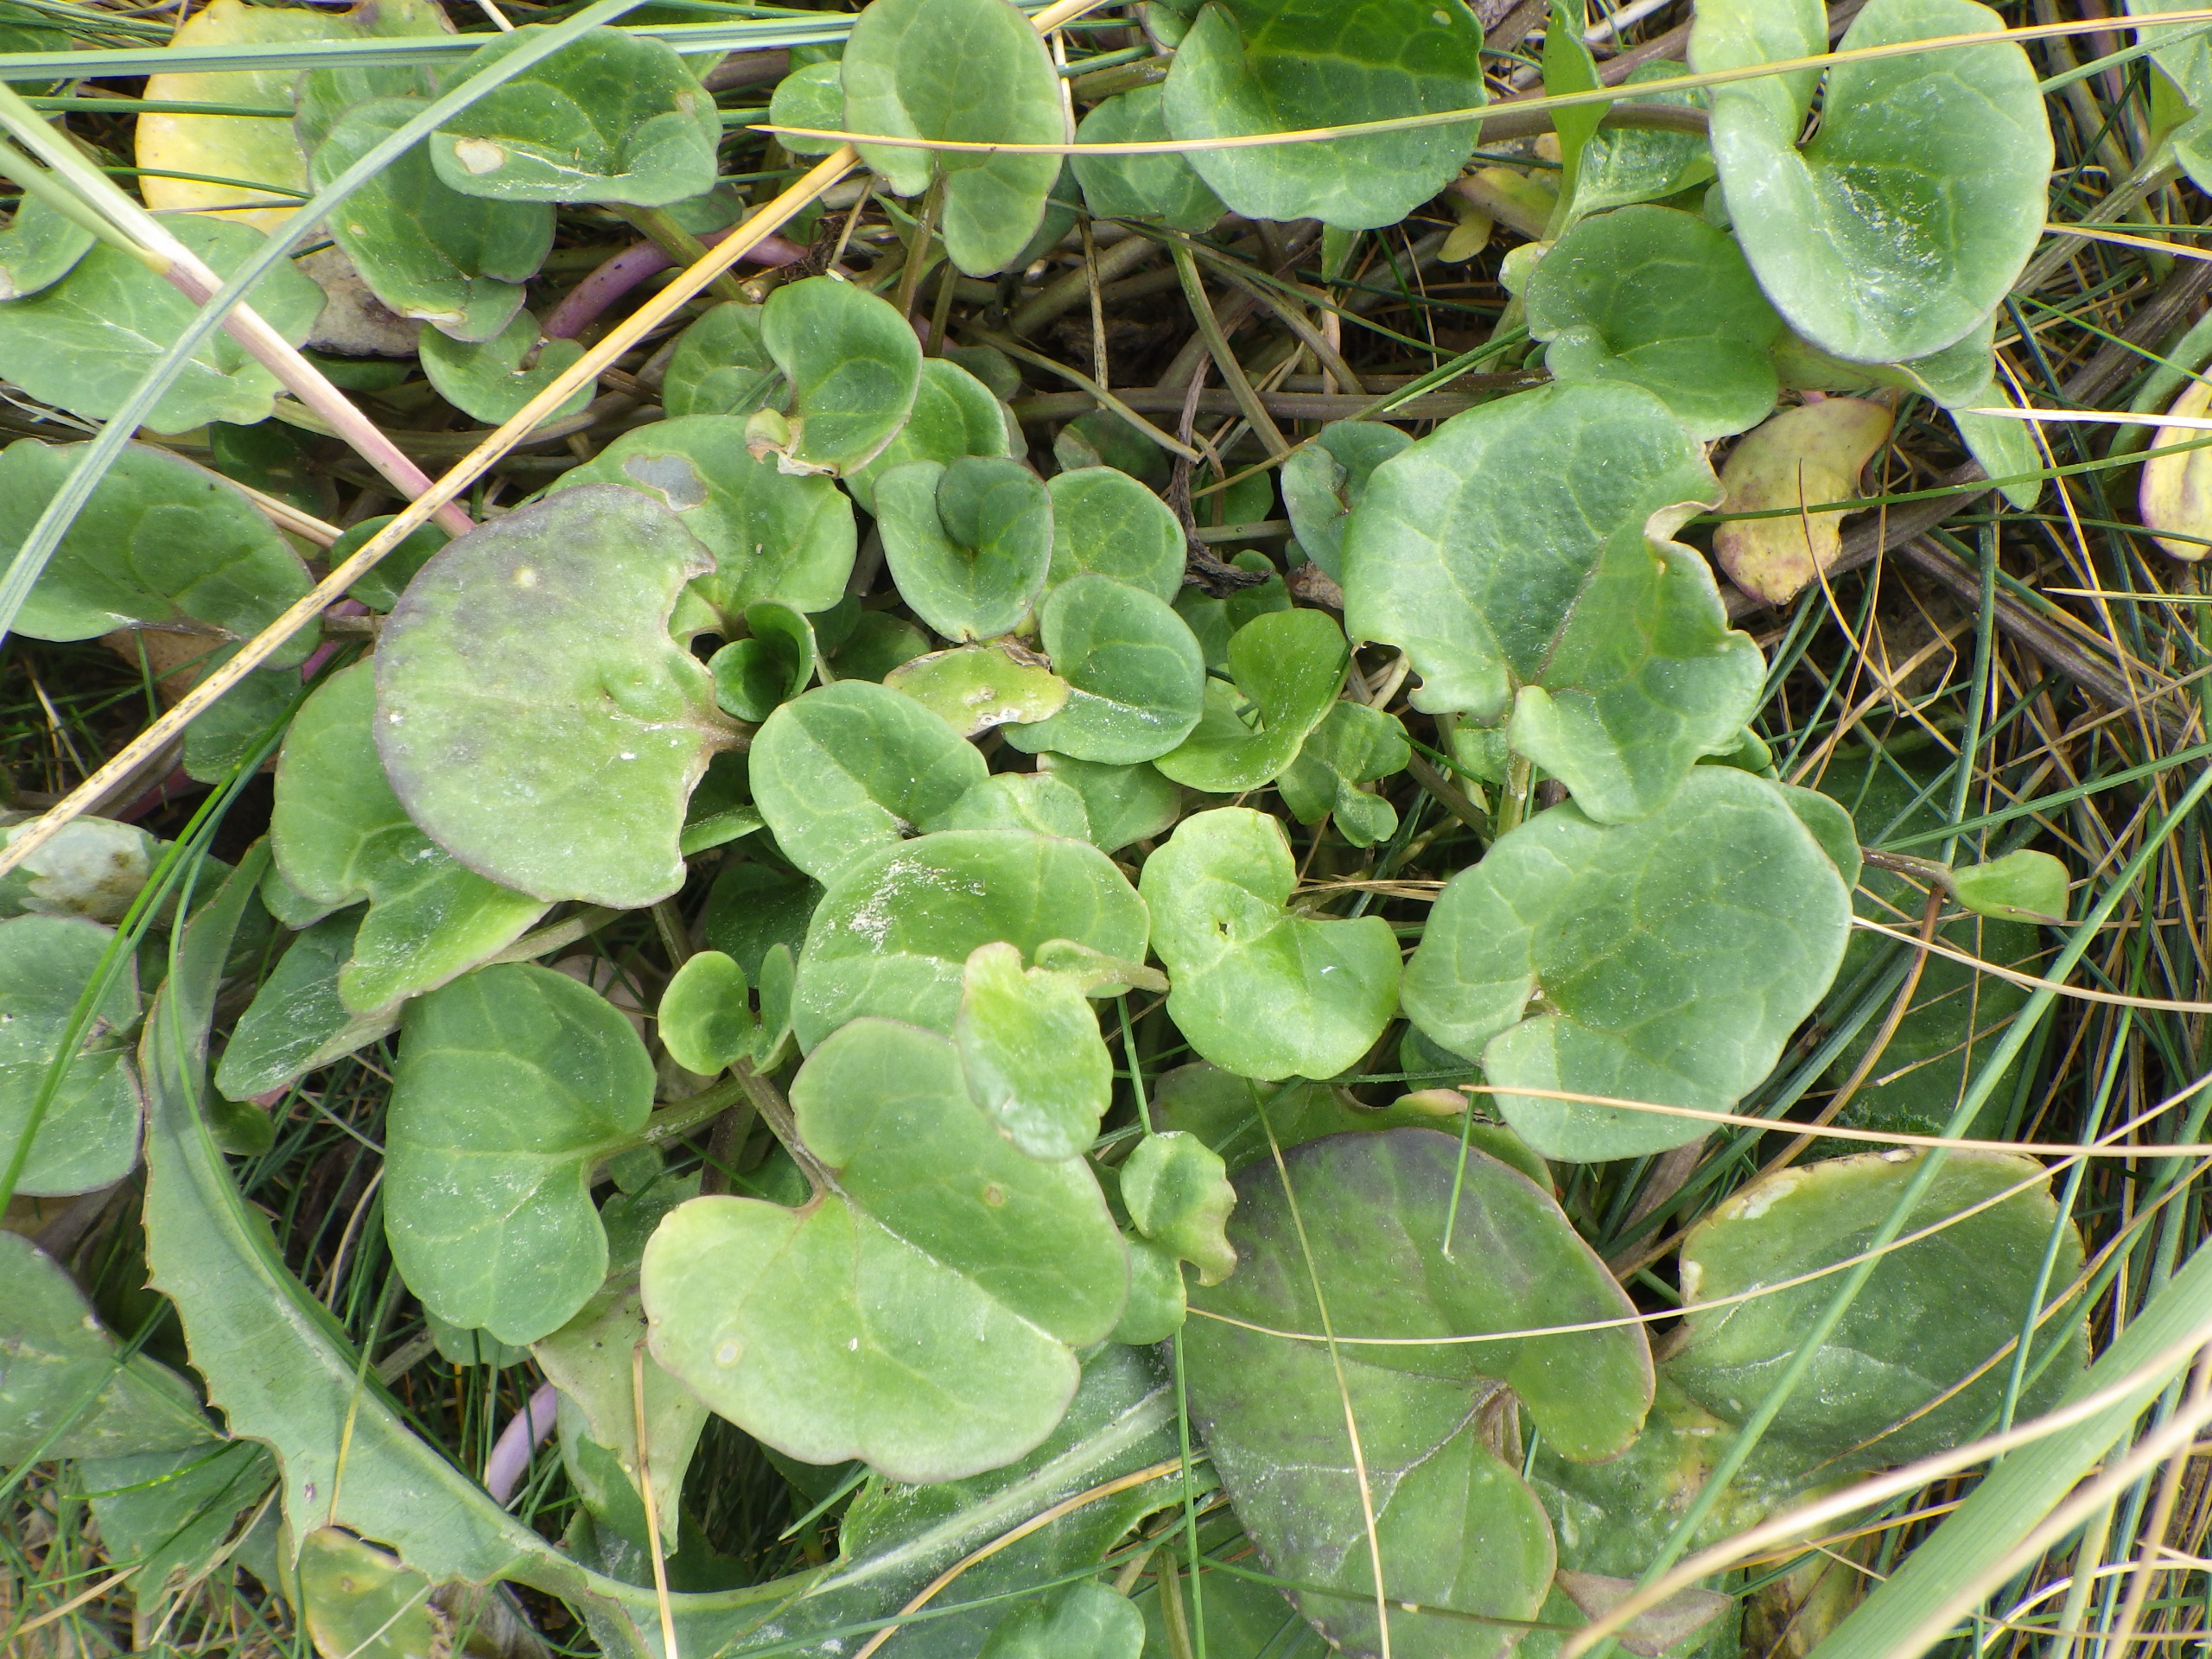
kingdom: Plantae
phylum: Tracheophyta
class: Magnoliopsida
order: Solanales
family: Convolvulaceae
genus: Calystegia
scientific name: Calystegia soldanella
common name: Strand-snerle
